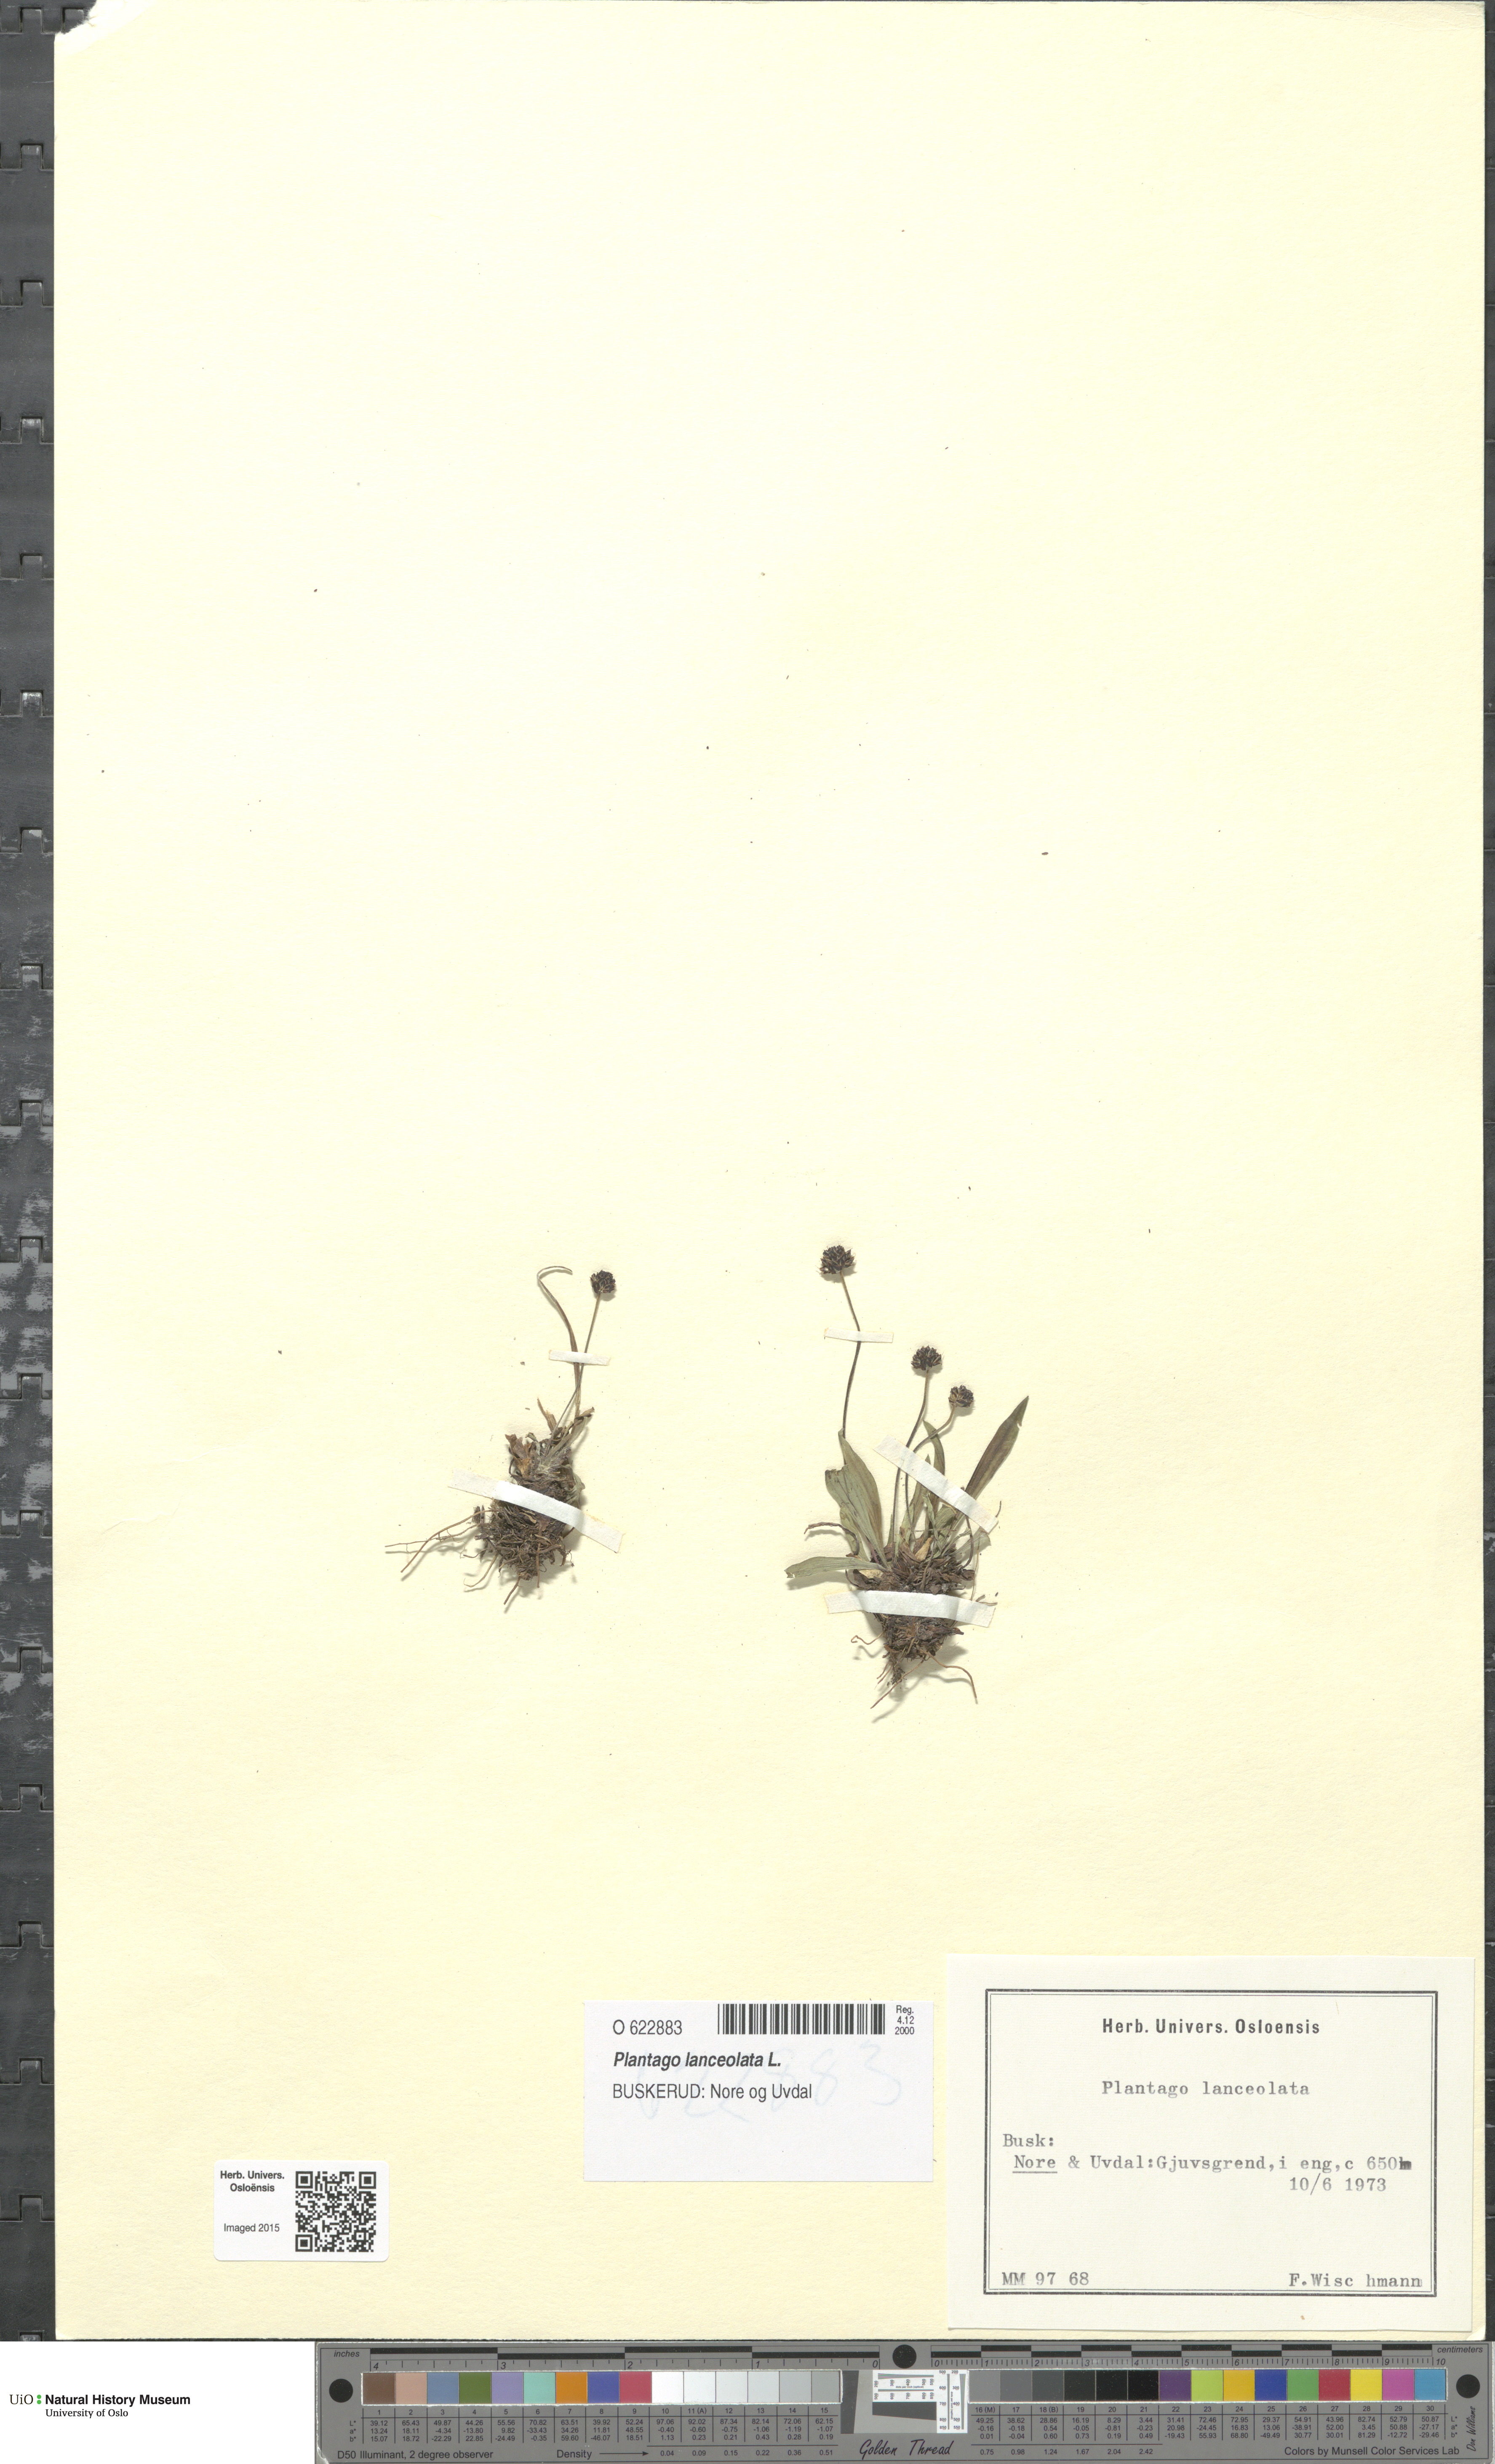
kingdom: Plantae
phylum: Tracheophyta
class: Magnoliopsida
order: Lamiales
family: Plantaginaceae
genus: Plantago
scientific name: Plantago lanceolata
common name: Ribwort plantain
